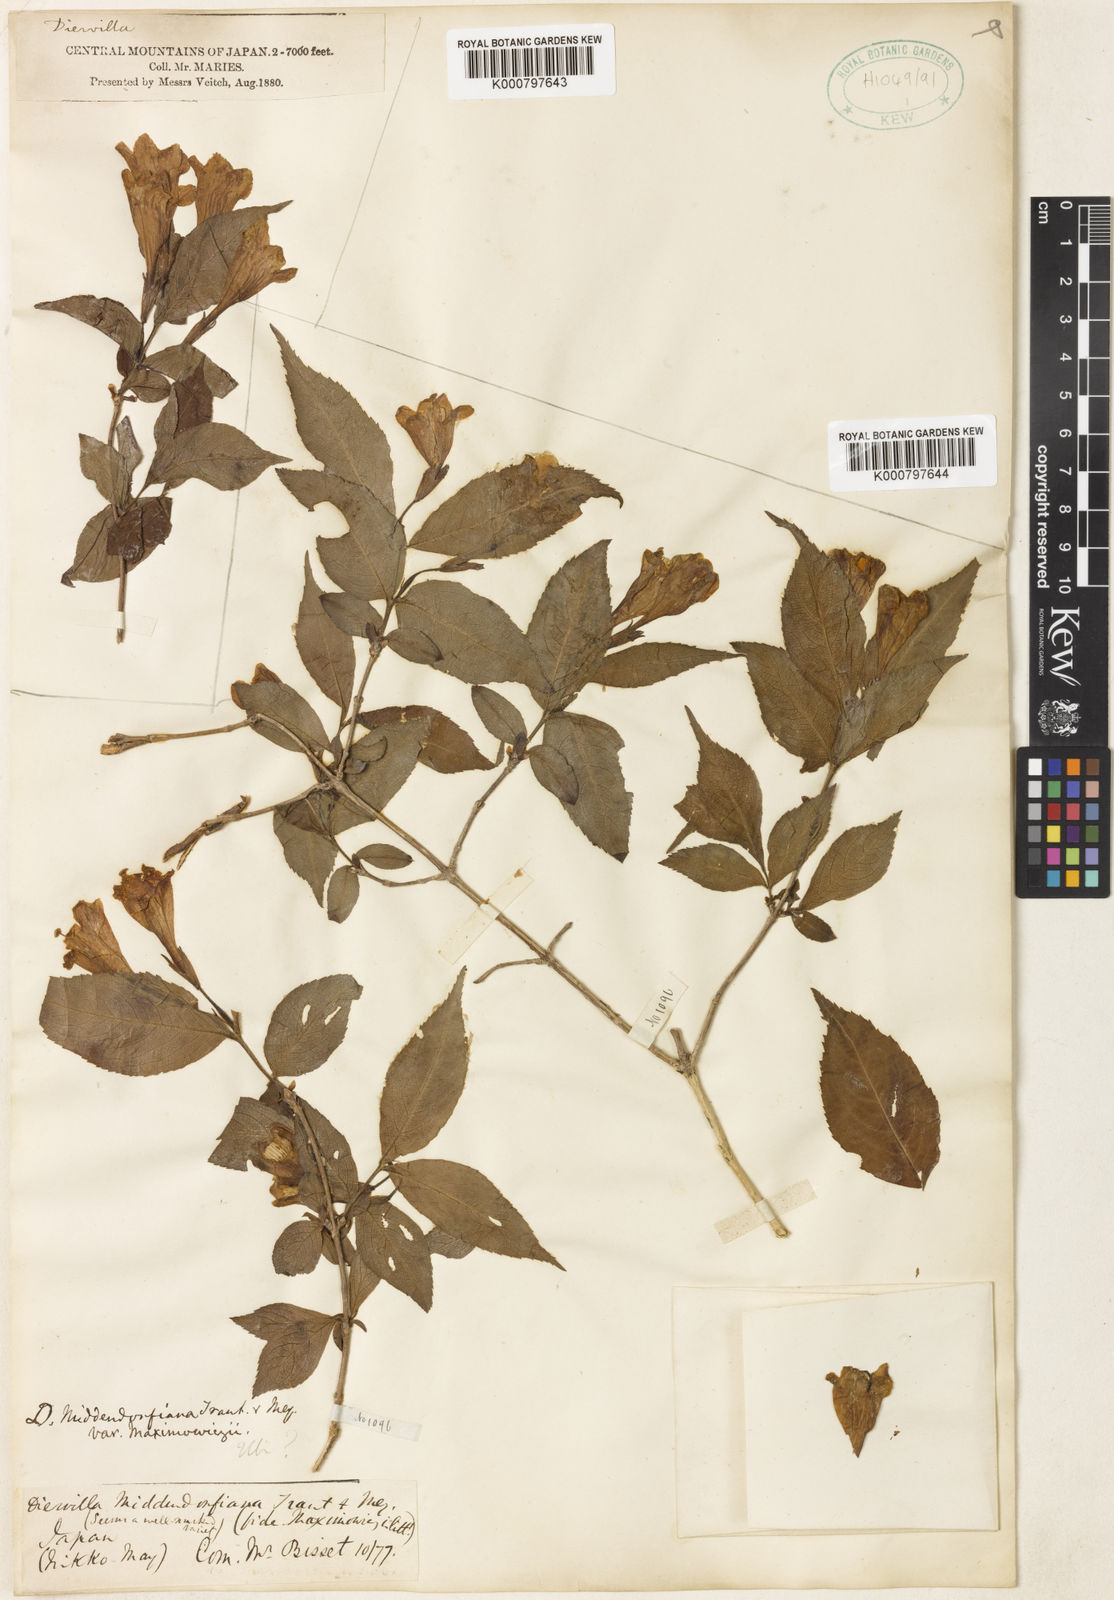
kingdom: Plantae
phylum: Tracheophyta
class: Magnoliopsida
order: Dipsacales
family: Caprifoliaceae
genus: Weigela
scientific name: Weigela maximowiczii
